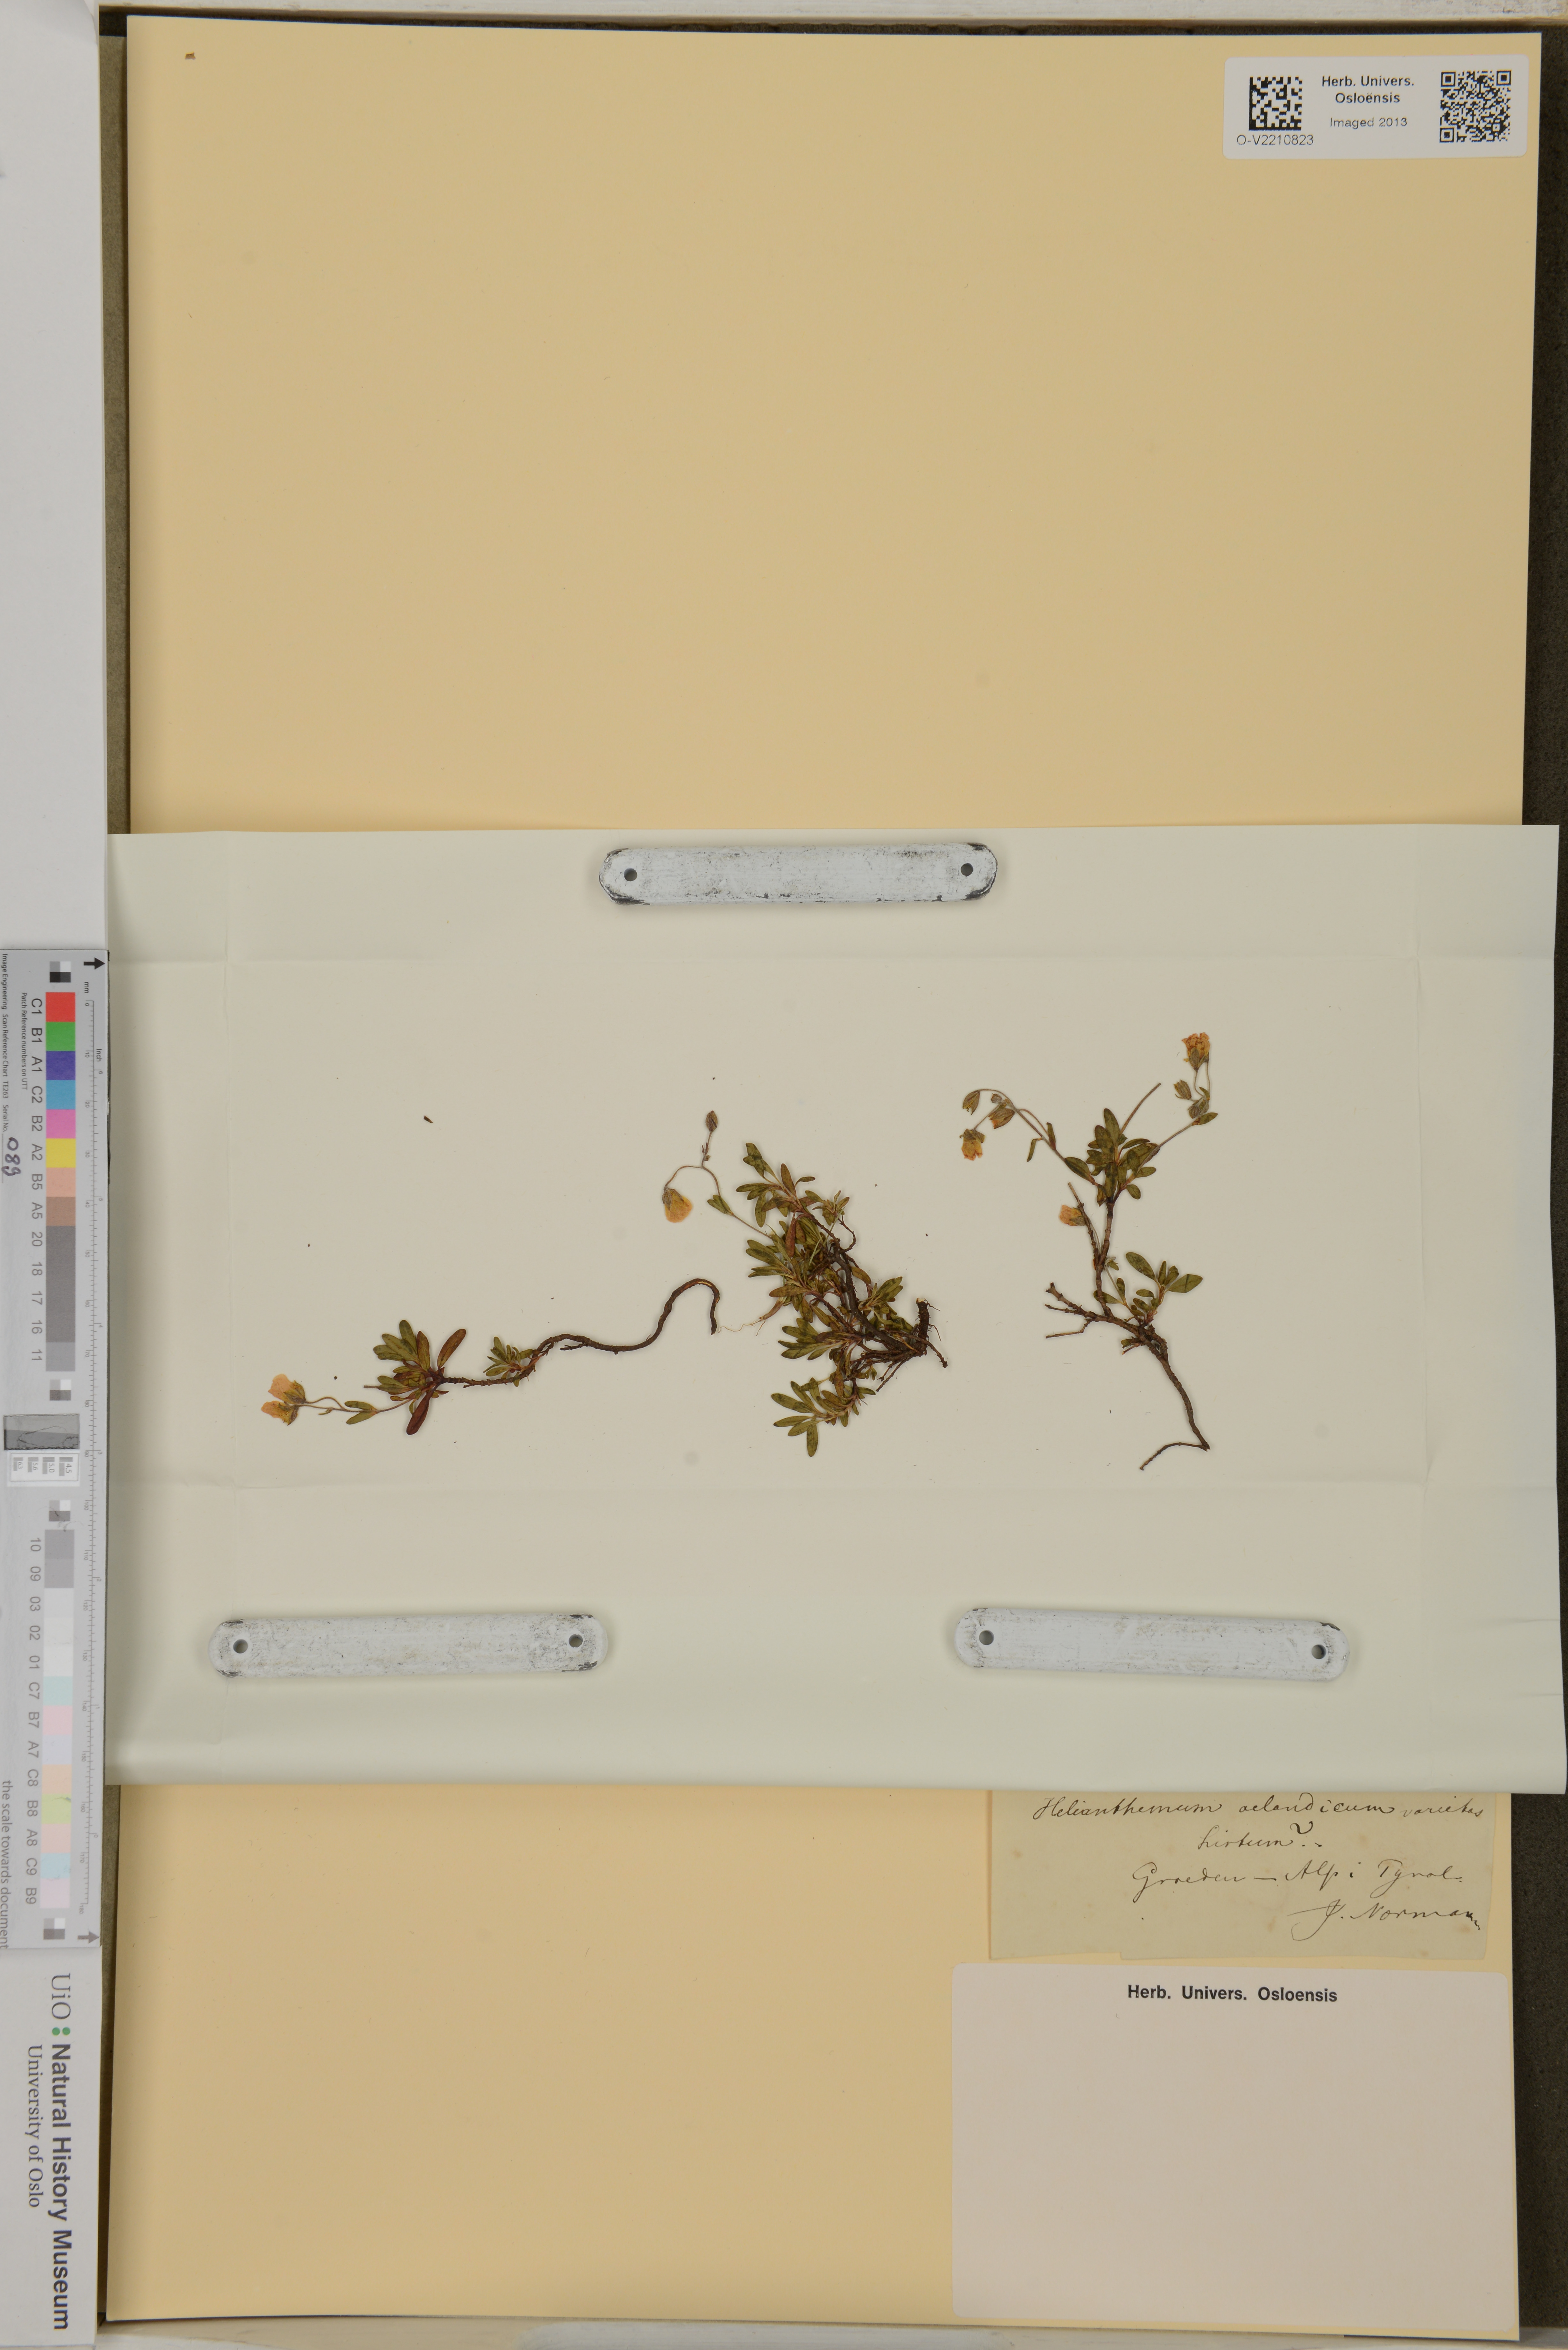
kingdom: Plantae
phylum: Tracheophyta
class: Magnoliopsida
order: Malvales
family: Cistaceae
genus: Helianthemum
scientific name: Helianthemum oelandicum
